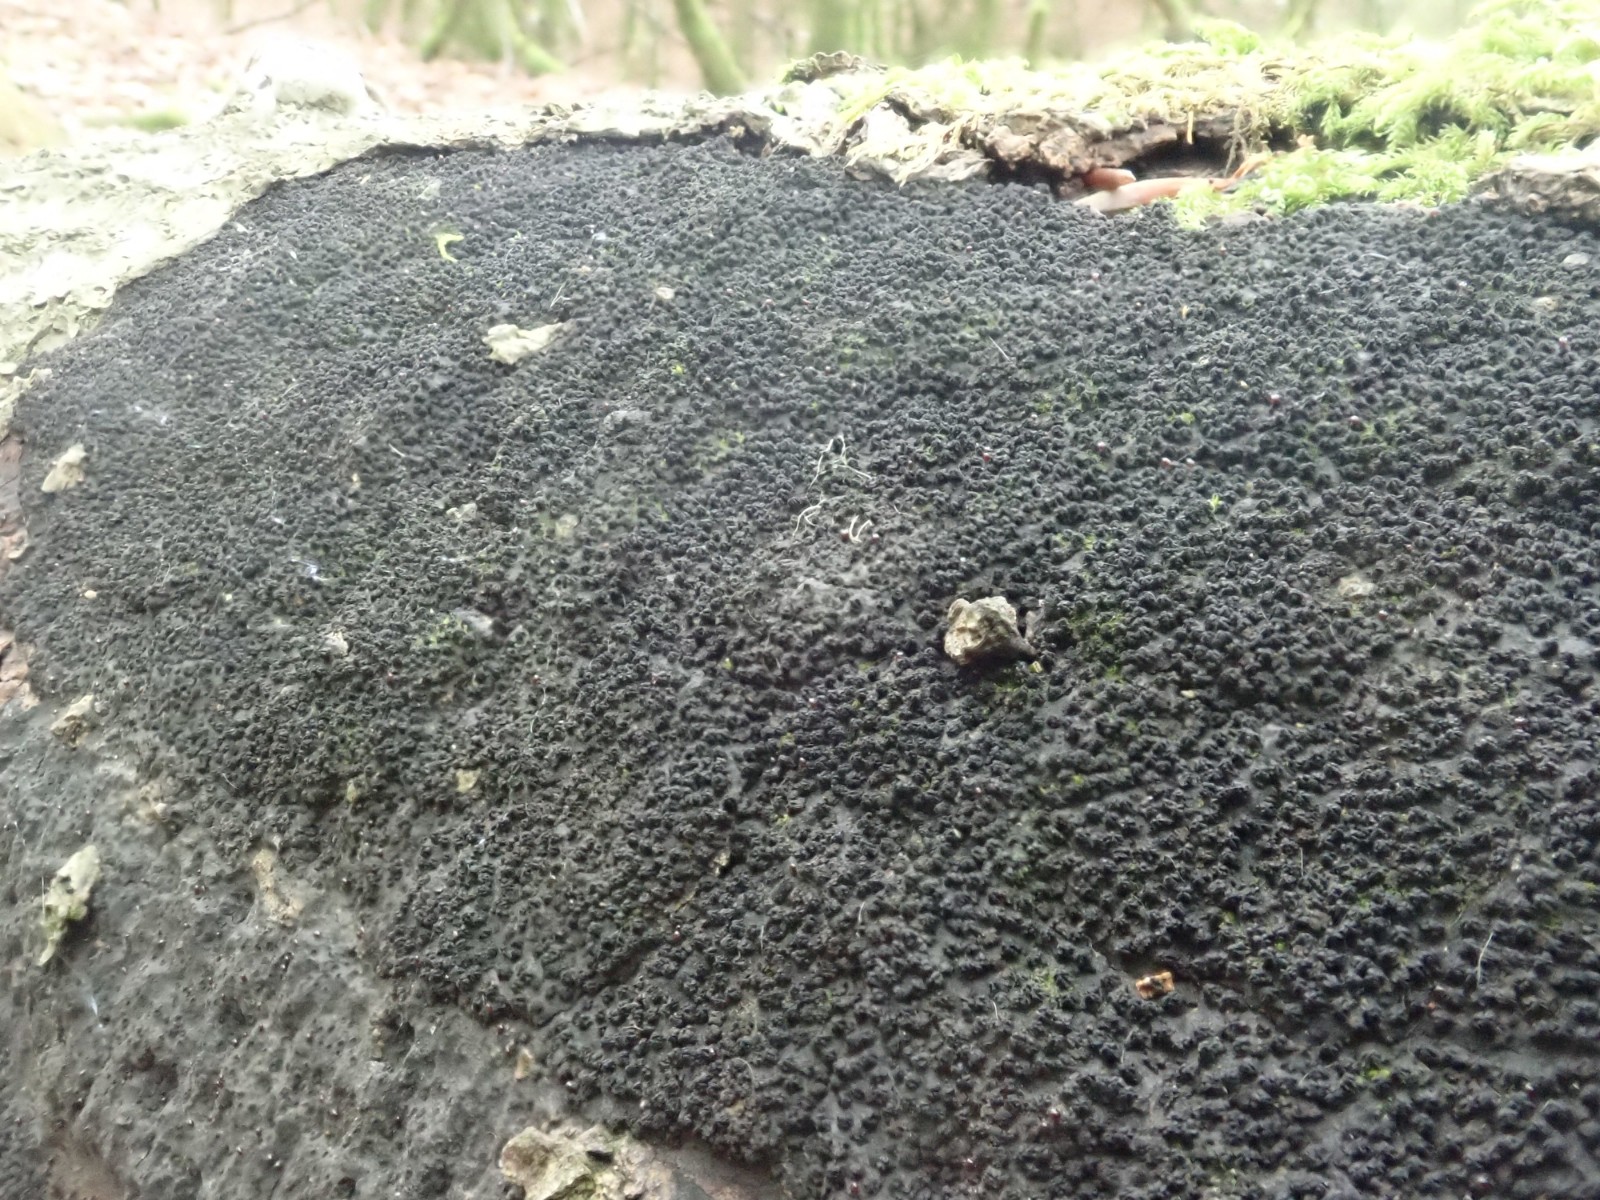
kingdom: Fungi
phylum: Ascomycota
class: Sordariomycetes
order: Xylariales
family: Diatrypaceae
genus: Eutypa
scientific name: Eutypa spinosa
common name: grov kulskorpe
